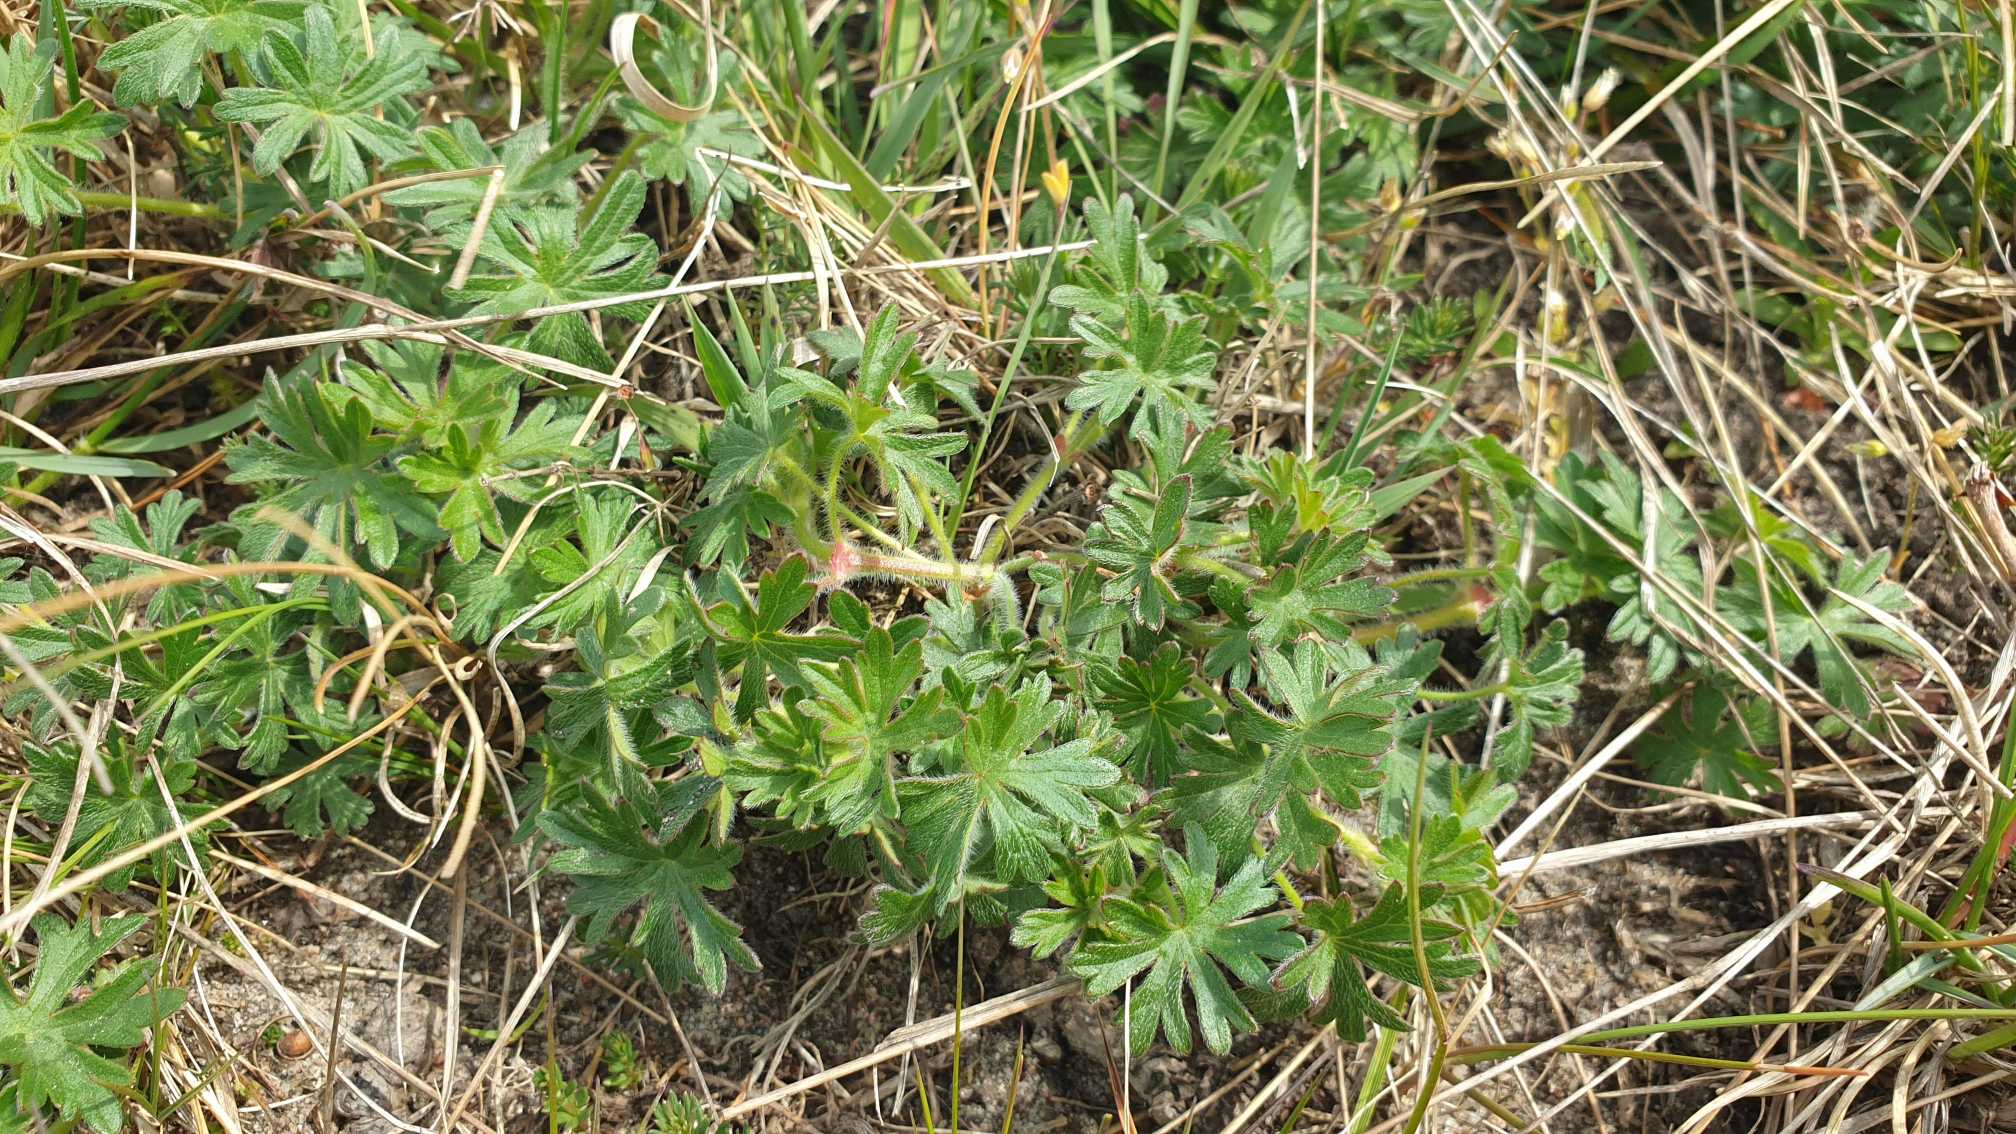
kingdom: Plantae
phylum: Tracheophyta
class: Magnoliopsida
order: Geraniales
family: Geraniaceae
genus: Geranium
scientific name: Geranium sanguineum
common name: Blodrød storkenæb
